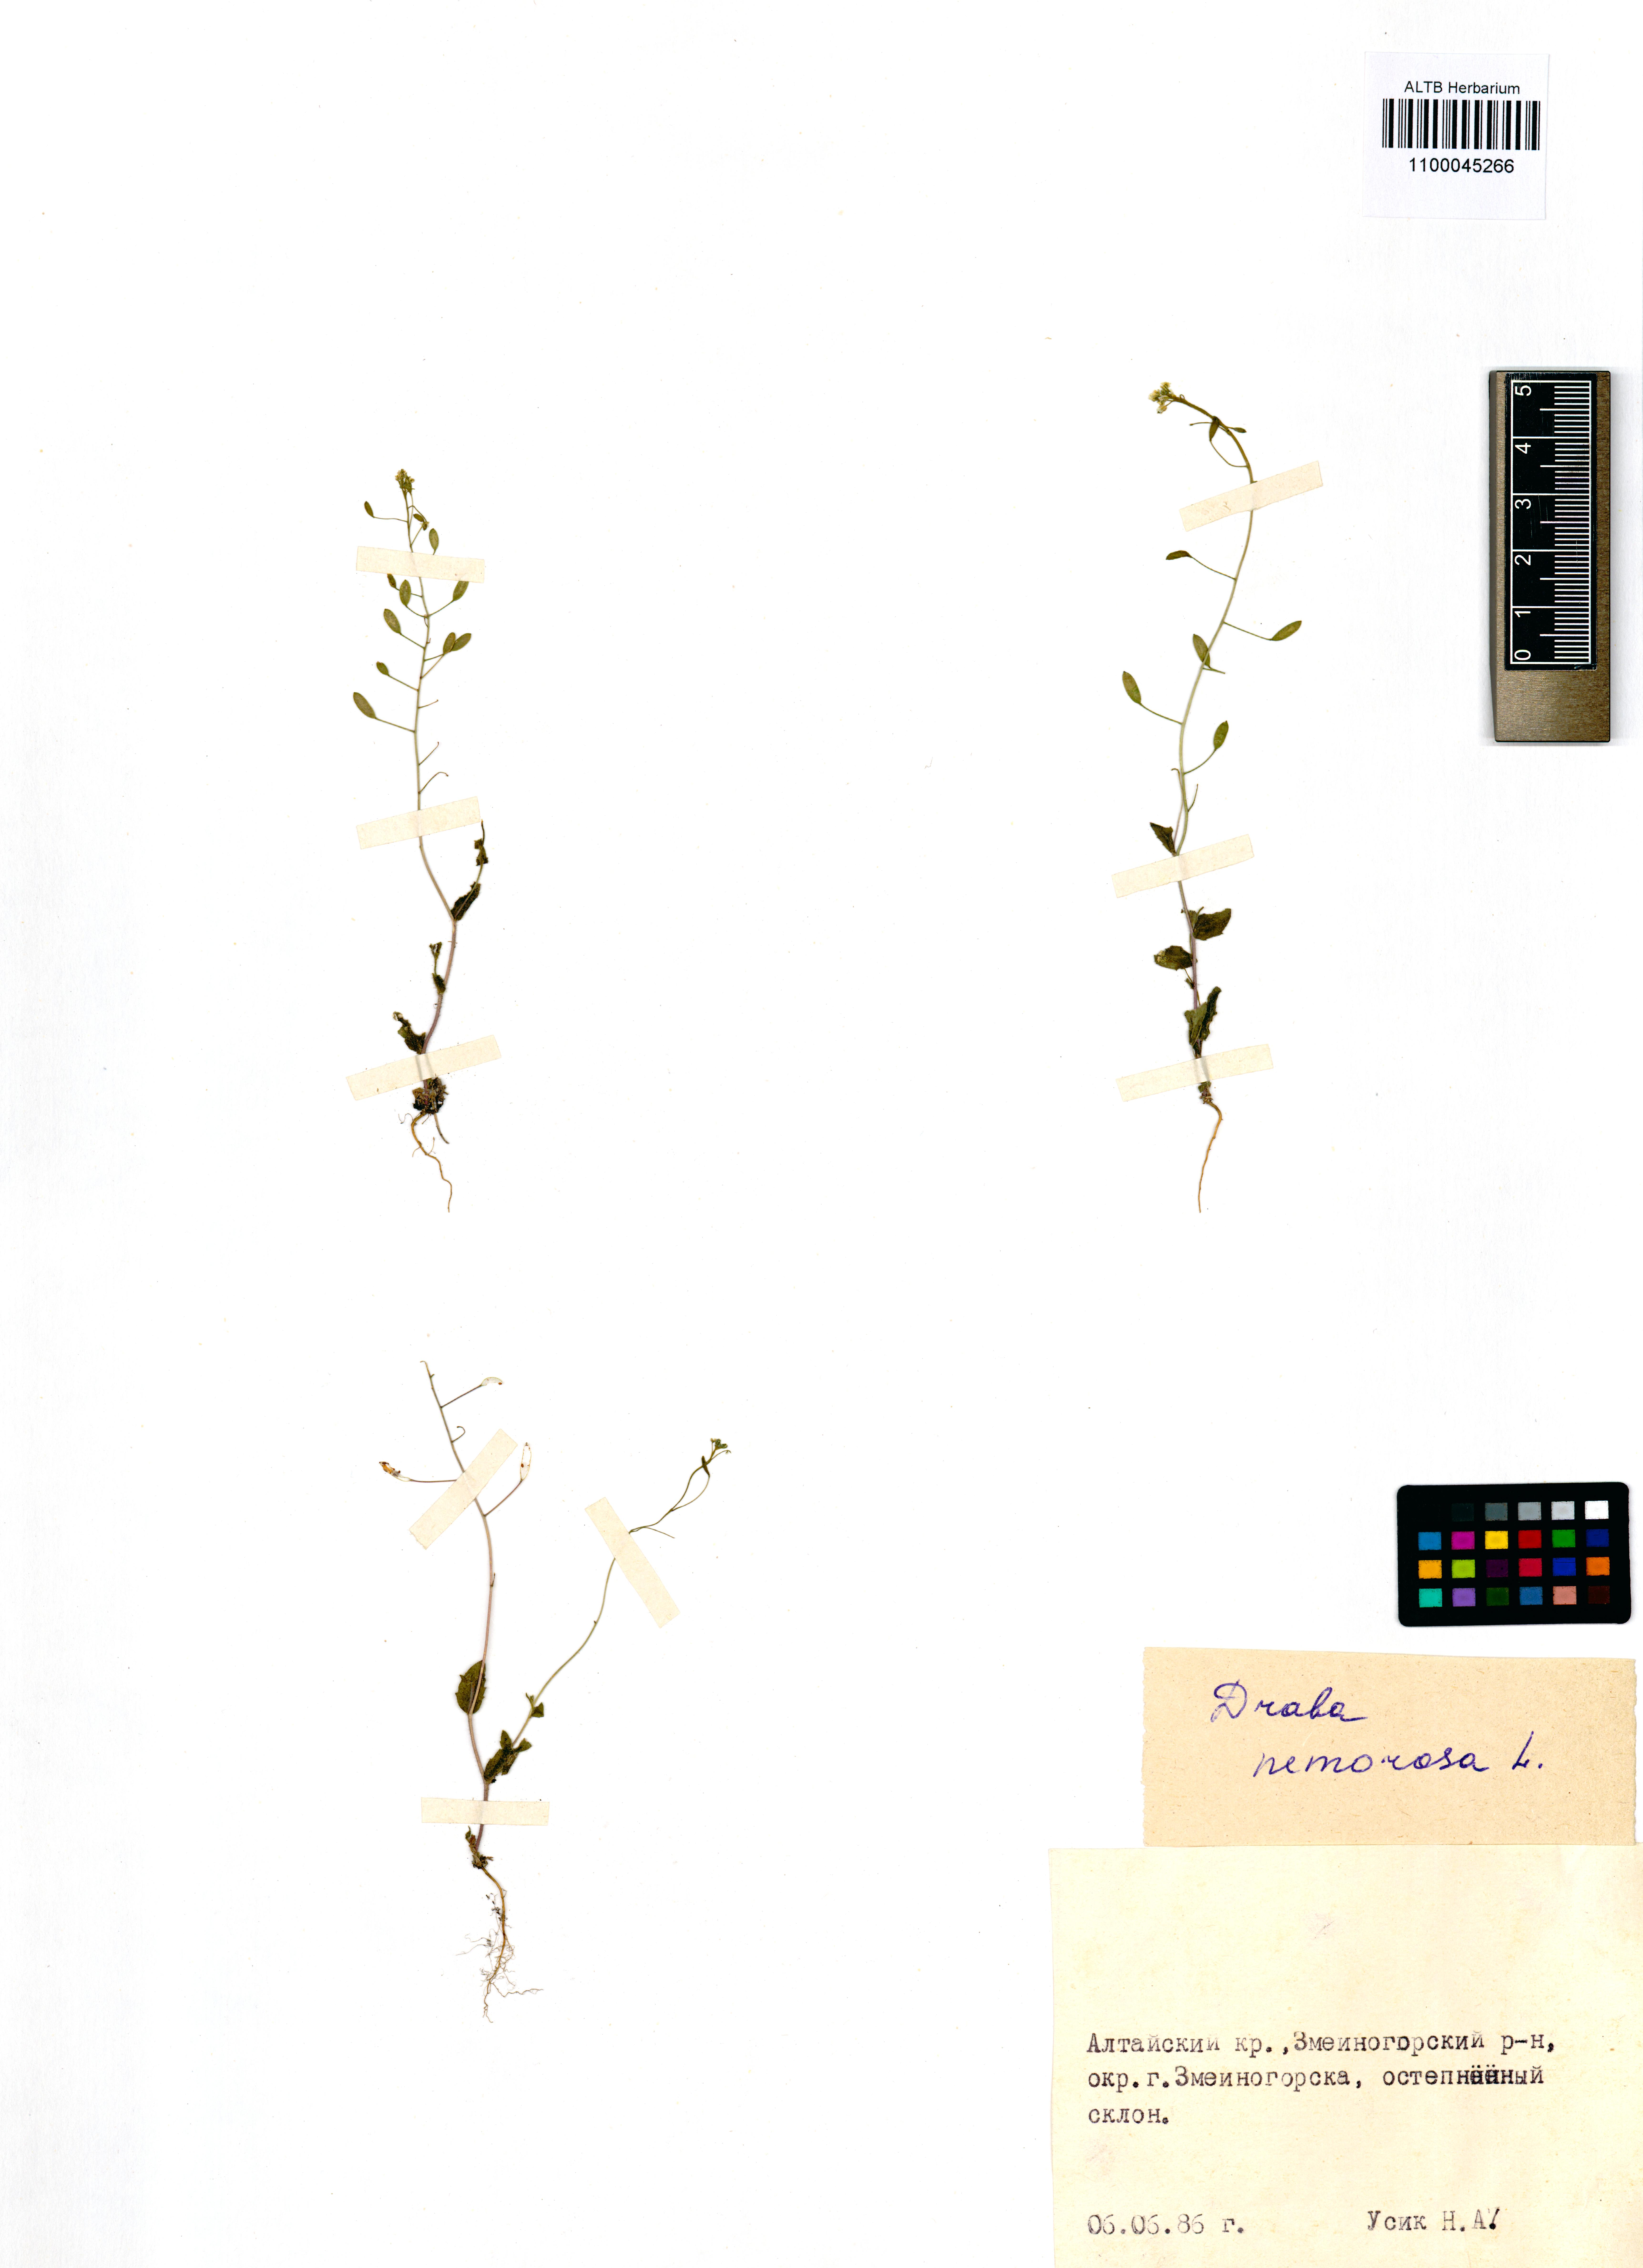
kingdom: Plantae
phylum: Tracheophyta
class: Magnoliopsida
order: Brassicales
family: Brassicaceae
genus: Draba
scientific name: Draba nemorosa
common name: Wood whitlow-grass
